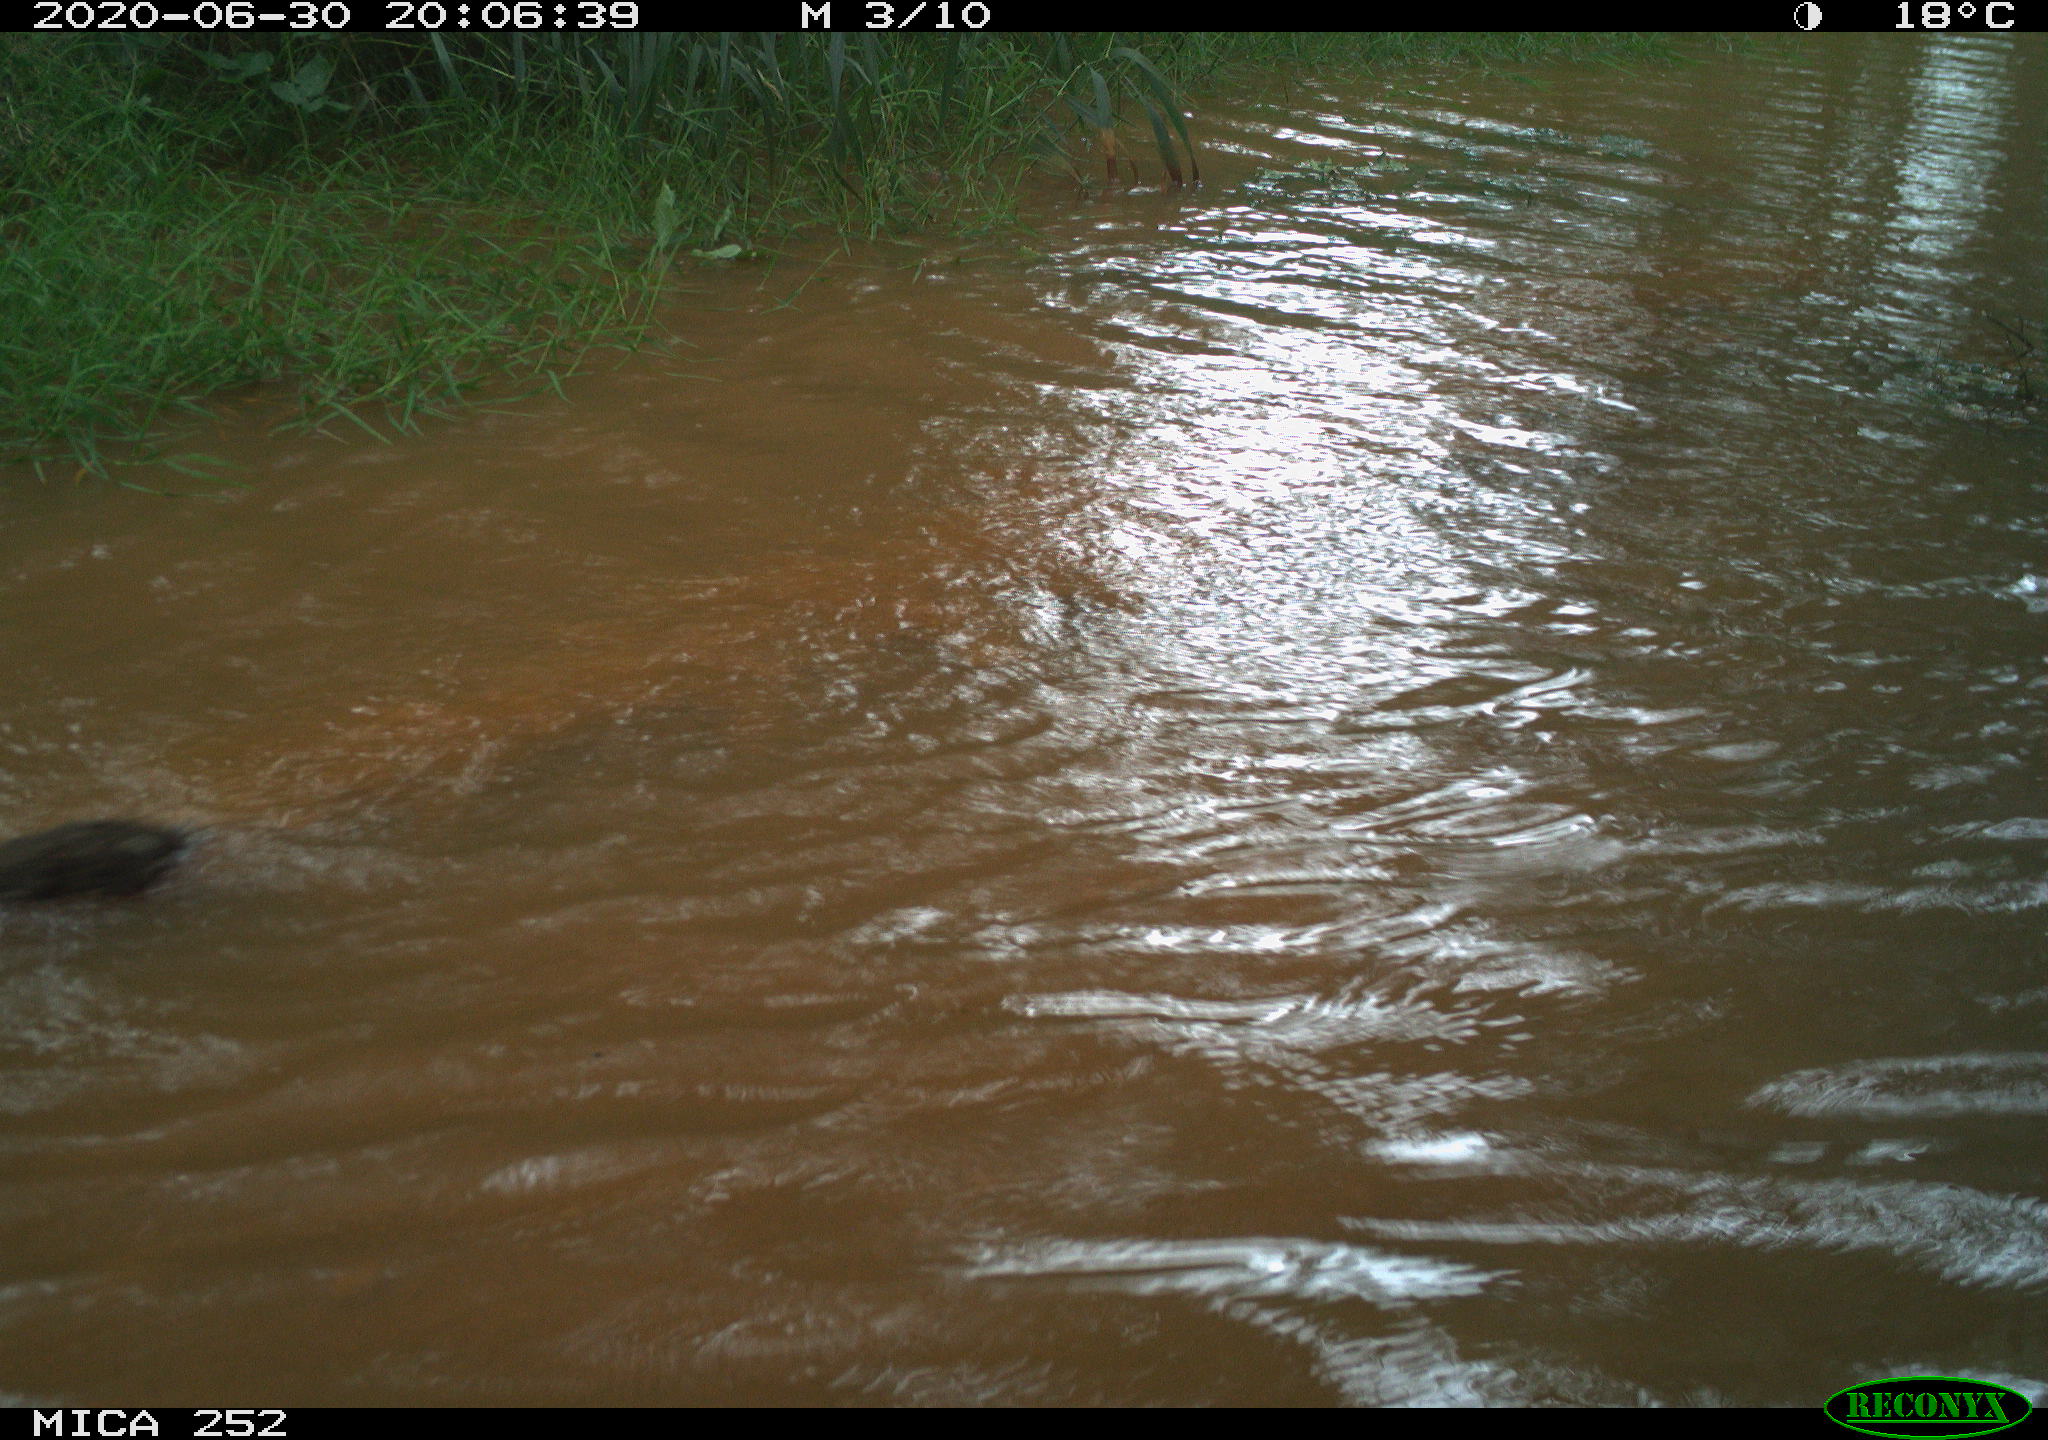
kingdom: Animalia
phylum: Chordata
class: Aves
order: Anseriformes
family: Anatidae
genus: Anas
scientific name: Anas platyrhynchos
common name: Mallard
